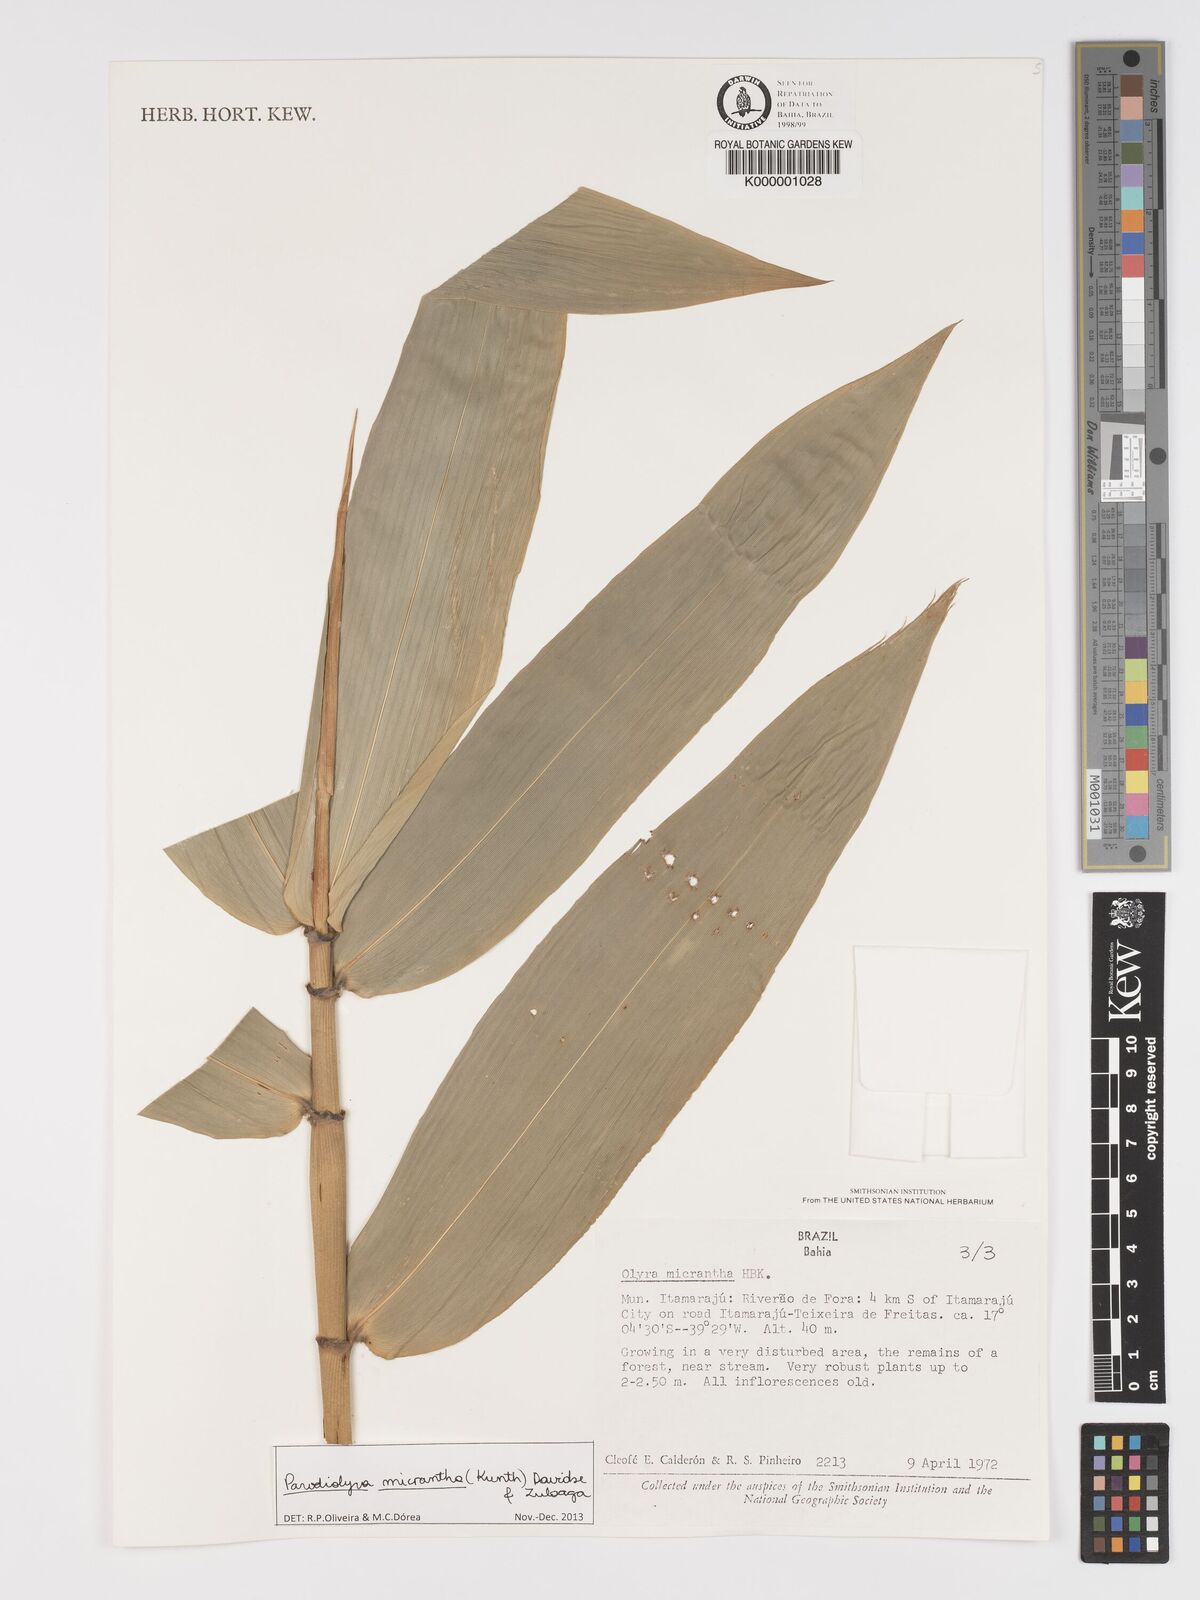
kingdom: Plantae
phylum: Tracheophyta
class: Liliopsida
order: Poales
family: Poaceae
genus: Taquara
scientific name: Taquara micrantha
